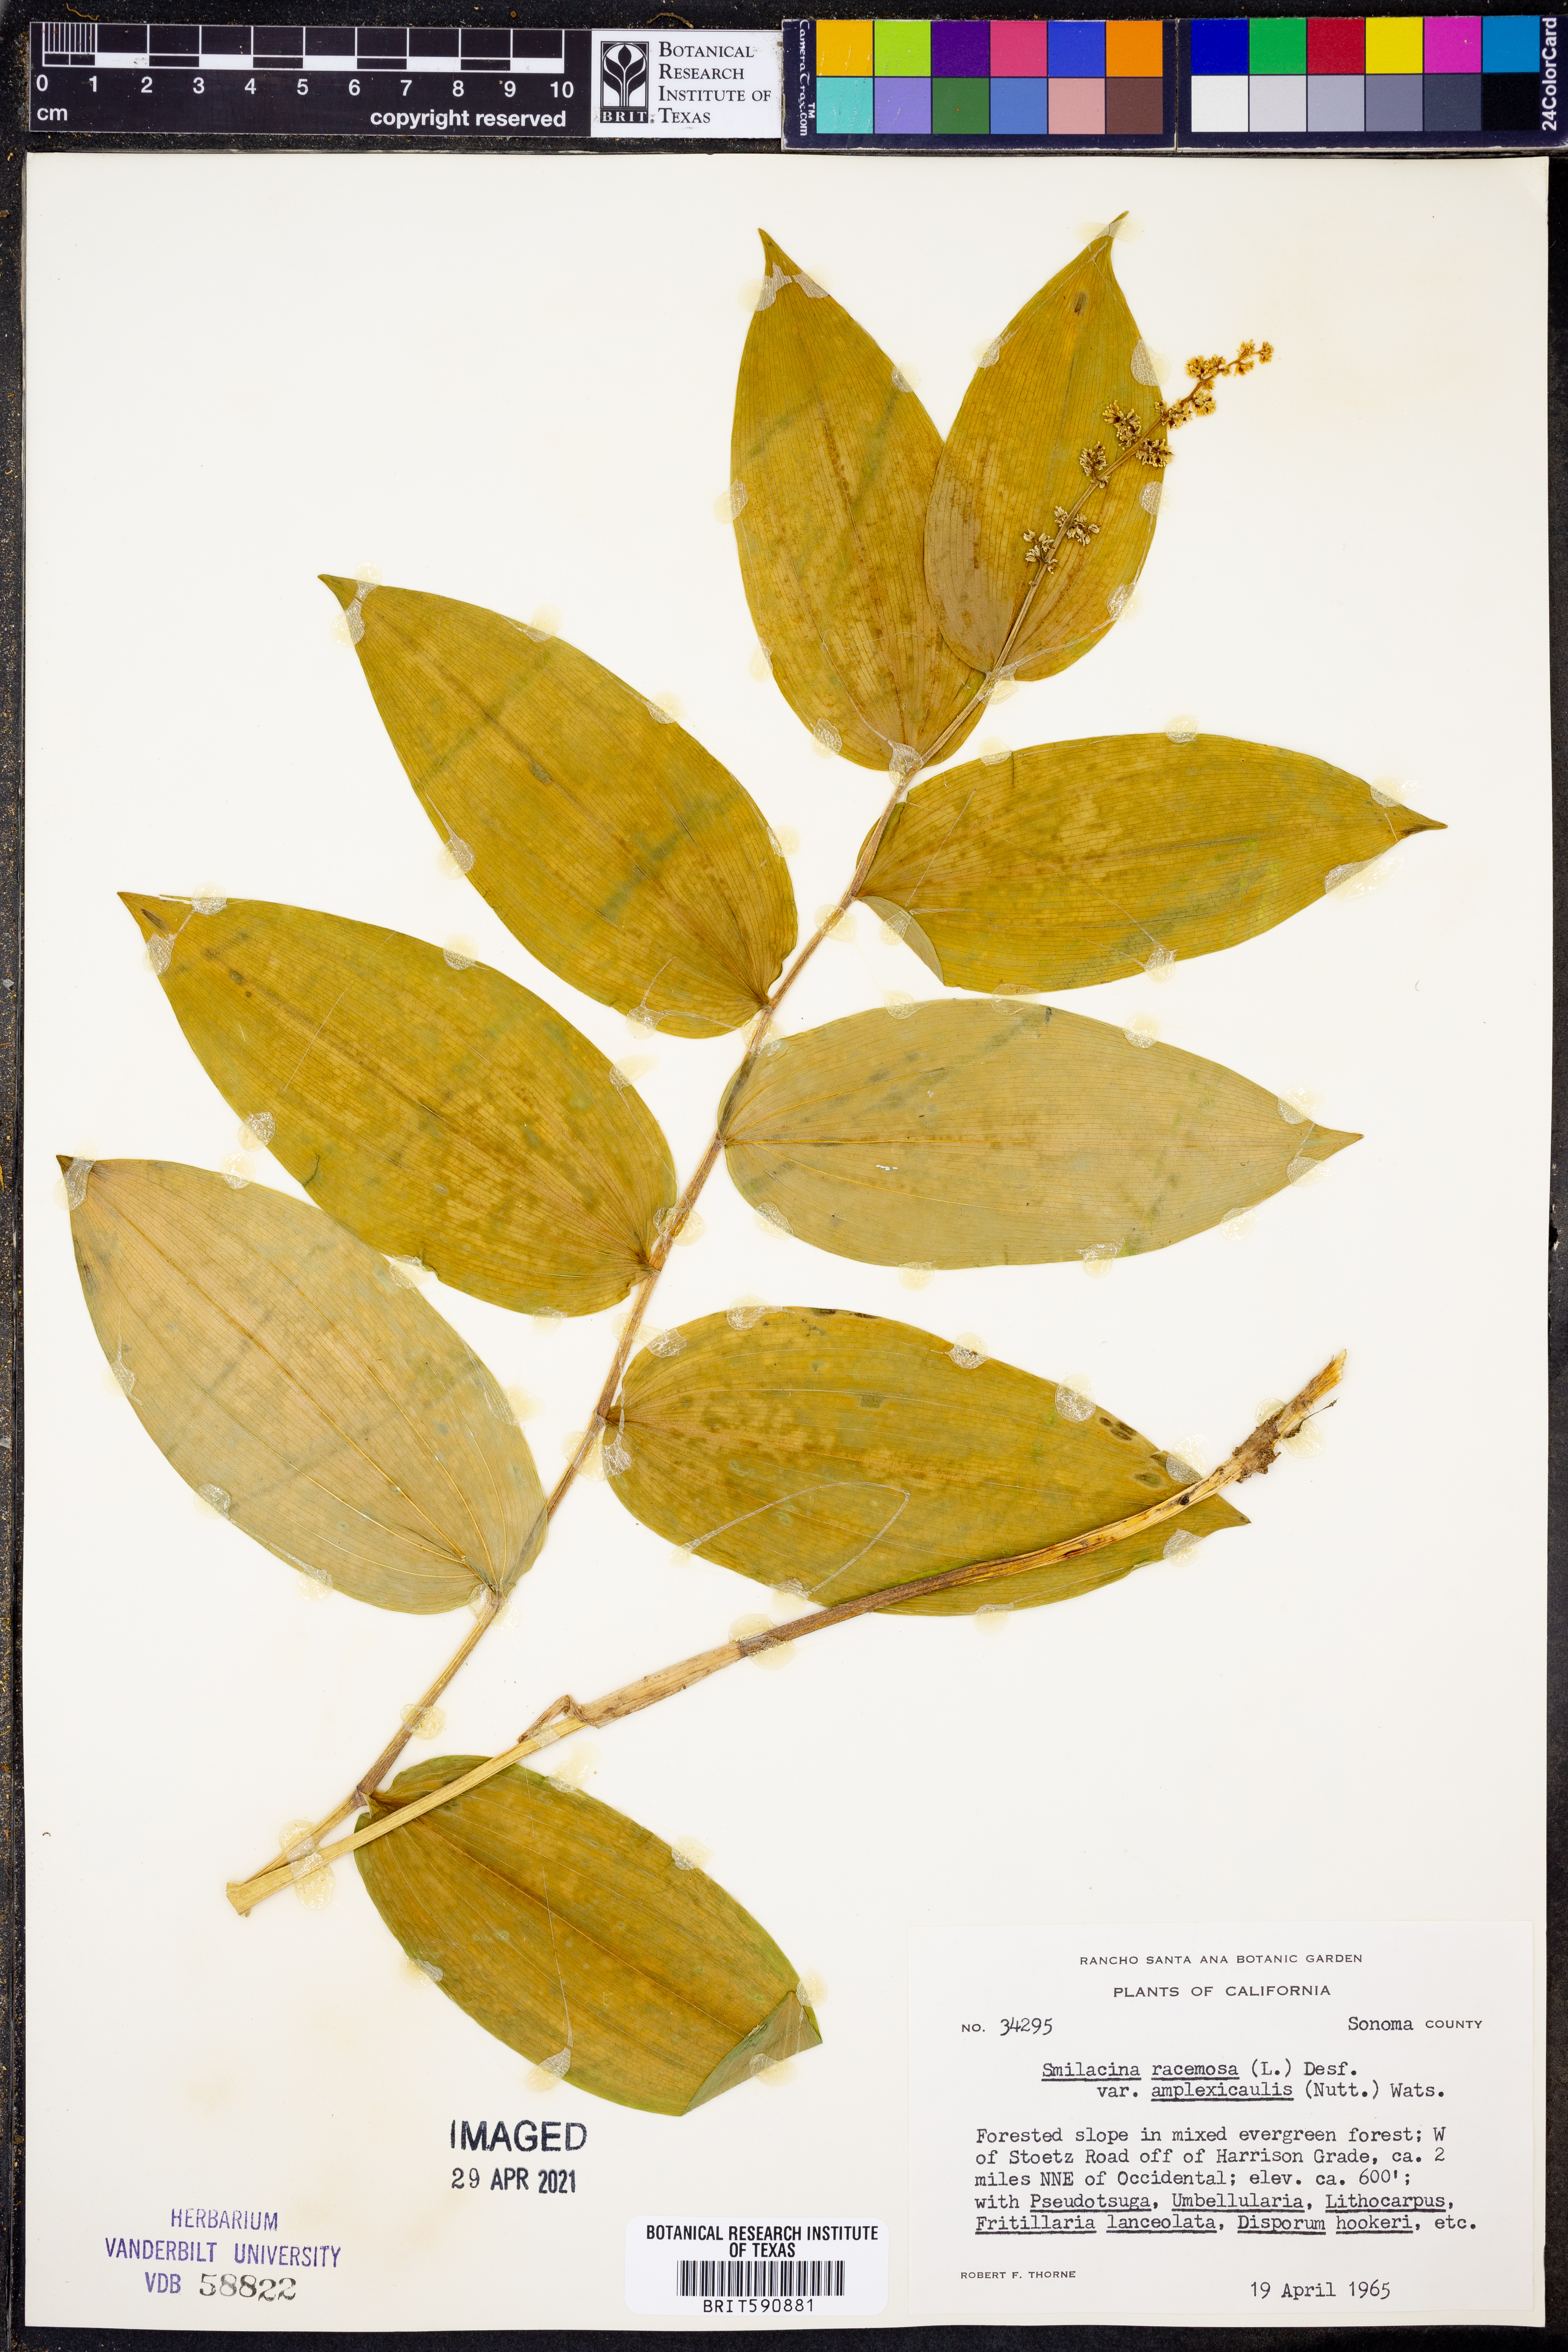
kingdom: Plantae
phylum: Tracheophyta
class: Liliopsida
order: Asparagales
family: Asparagaceae
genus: Maianthemum
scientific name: Maianthemum racemosum
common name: False spikenard
